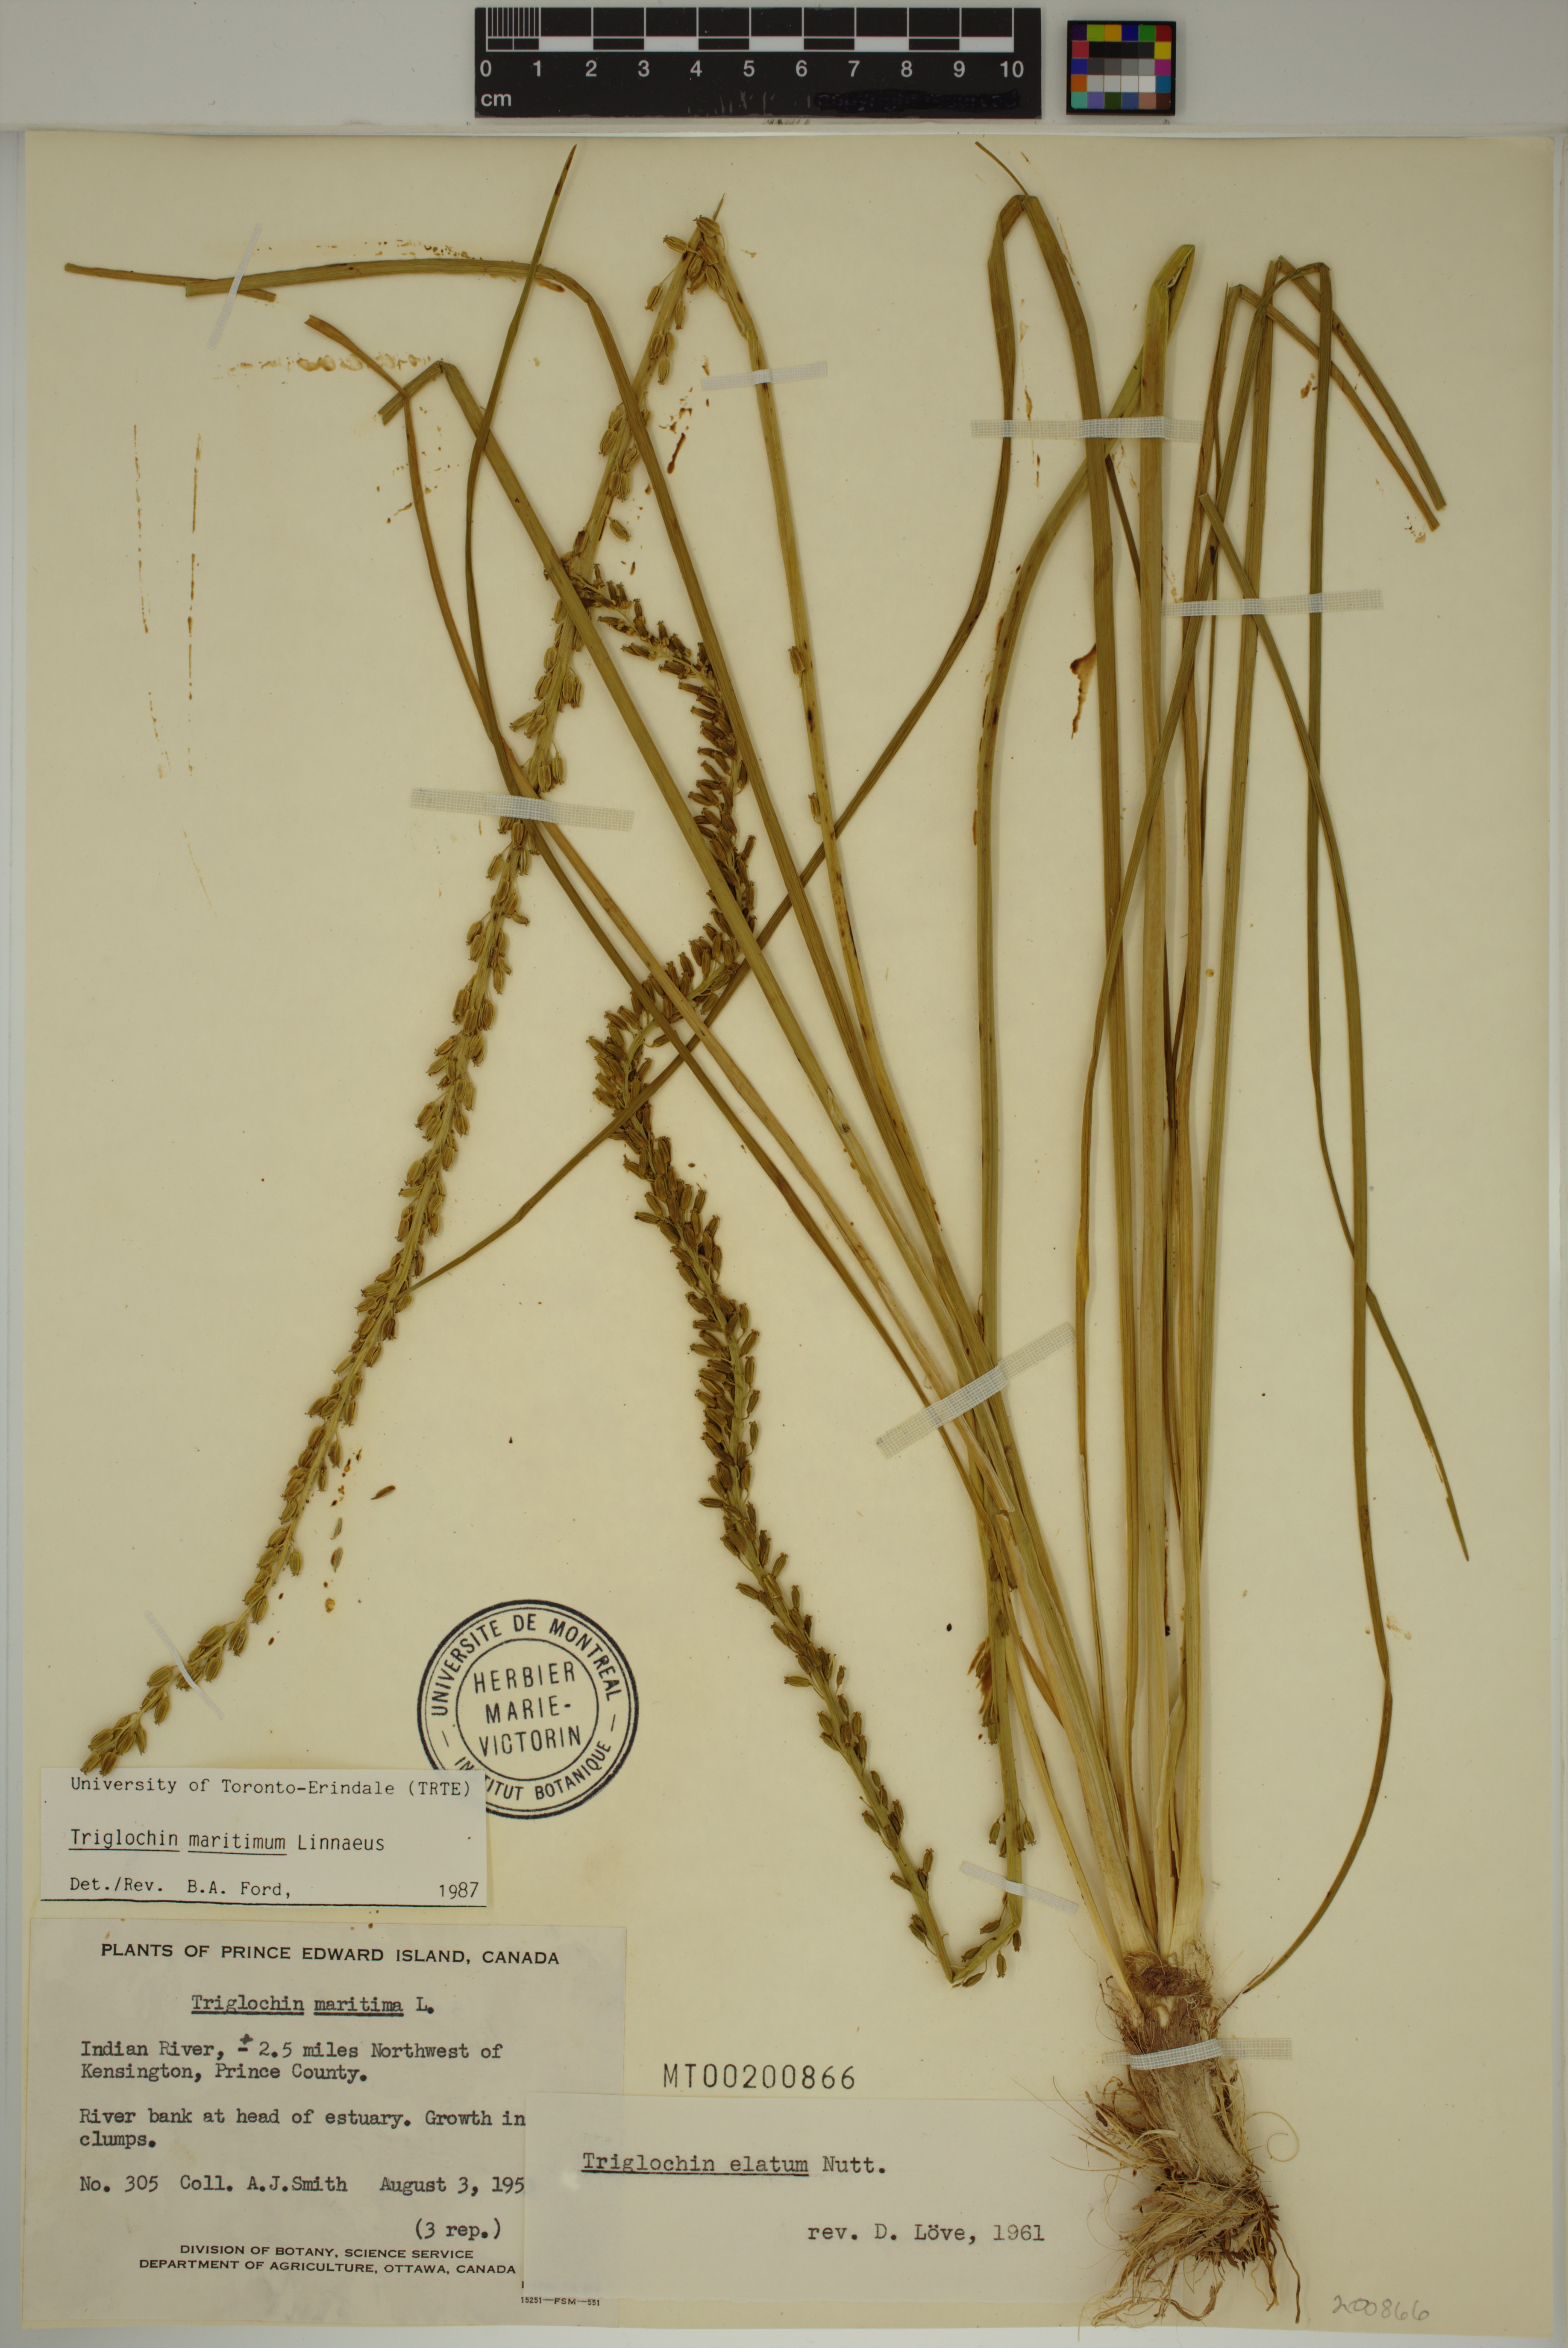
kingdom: Plantae
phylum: Tracheophyta
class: Liliopsida
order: Alismatales
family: Juncaginaceae
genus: Triglochin
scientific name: Triglochin maritima
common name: Sea arrowgrass
